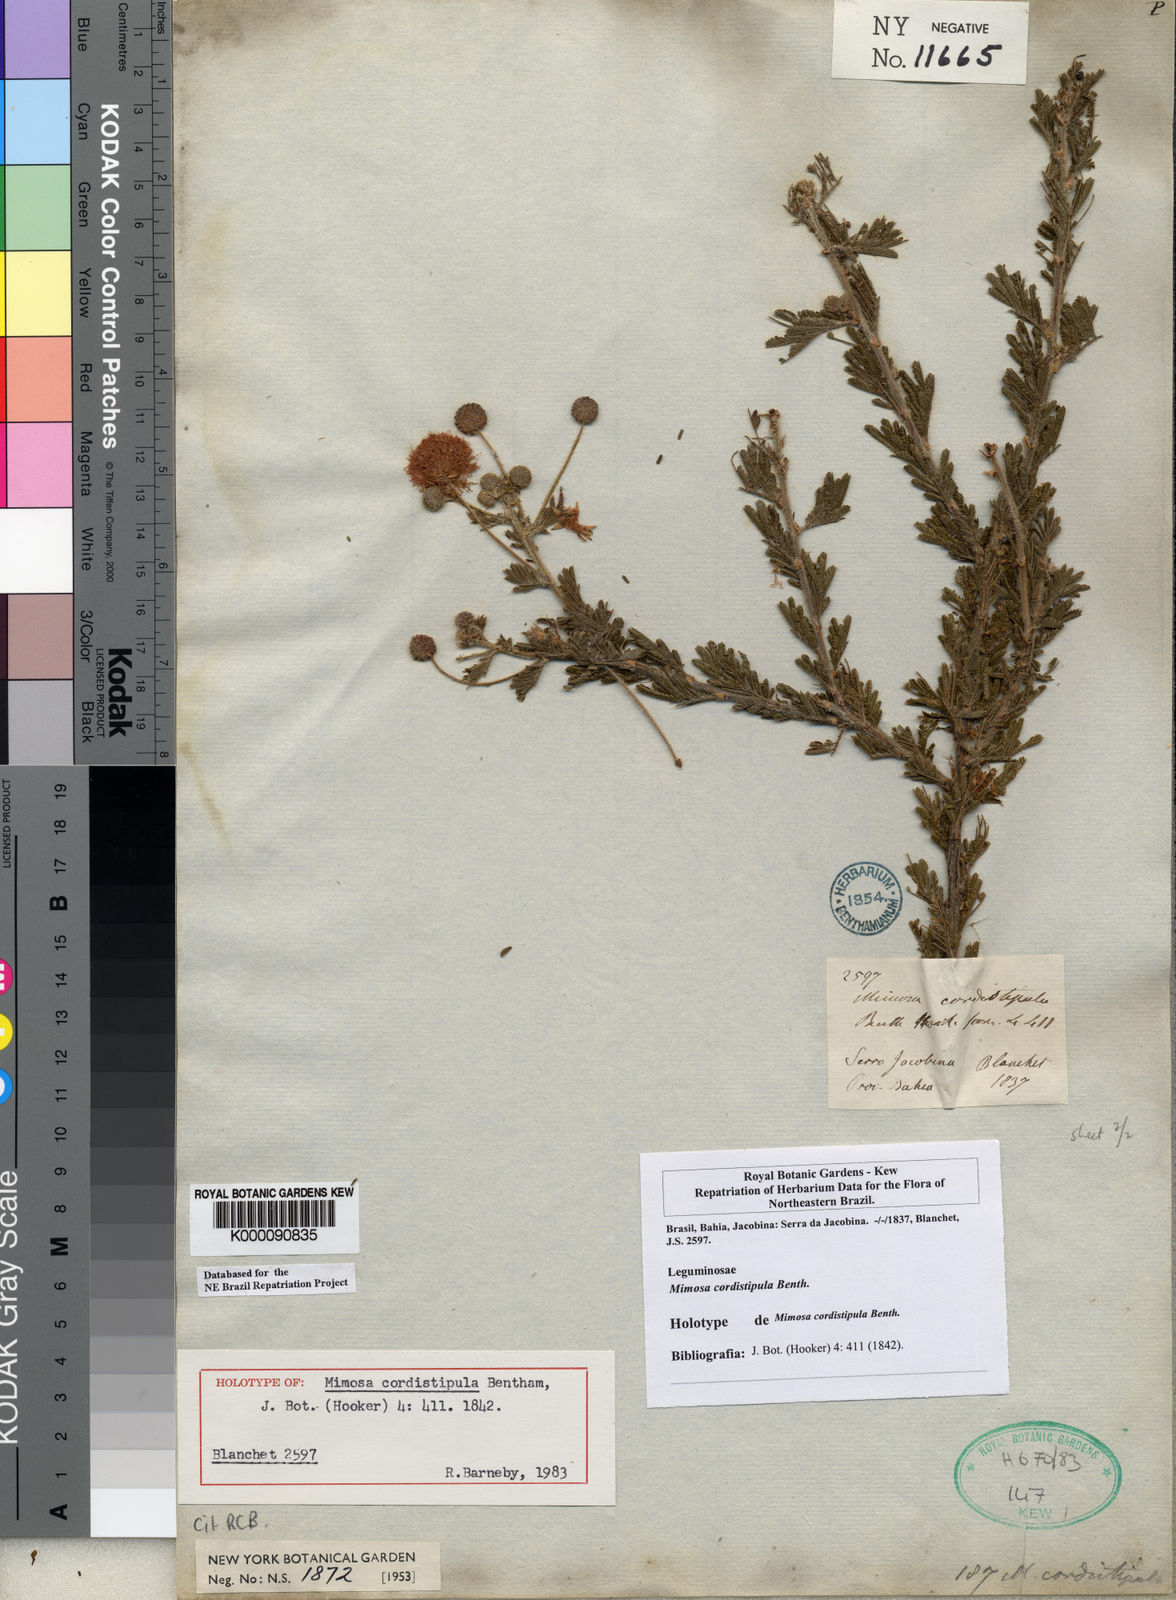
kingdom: Plantae
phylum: Tracheophyta
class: Magnoliopsida
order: Fabales
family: Fabaceae
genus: Mimosa
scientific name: Mimosa cordistipula
